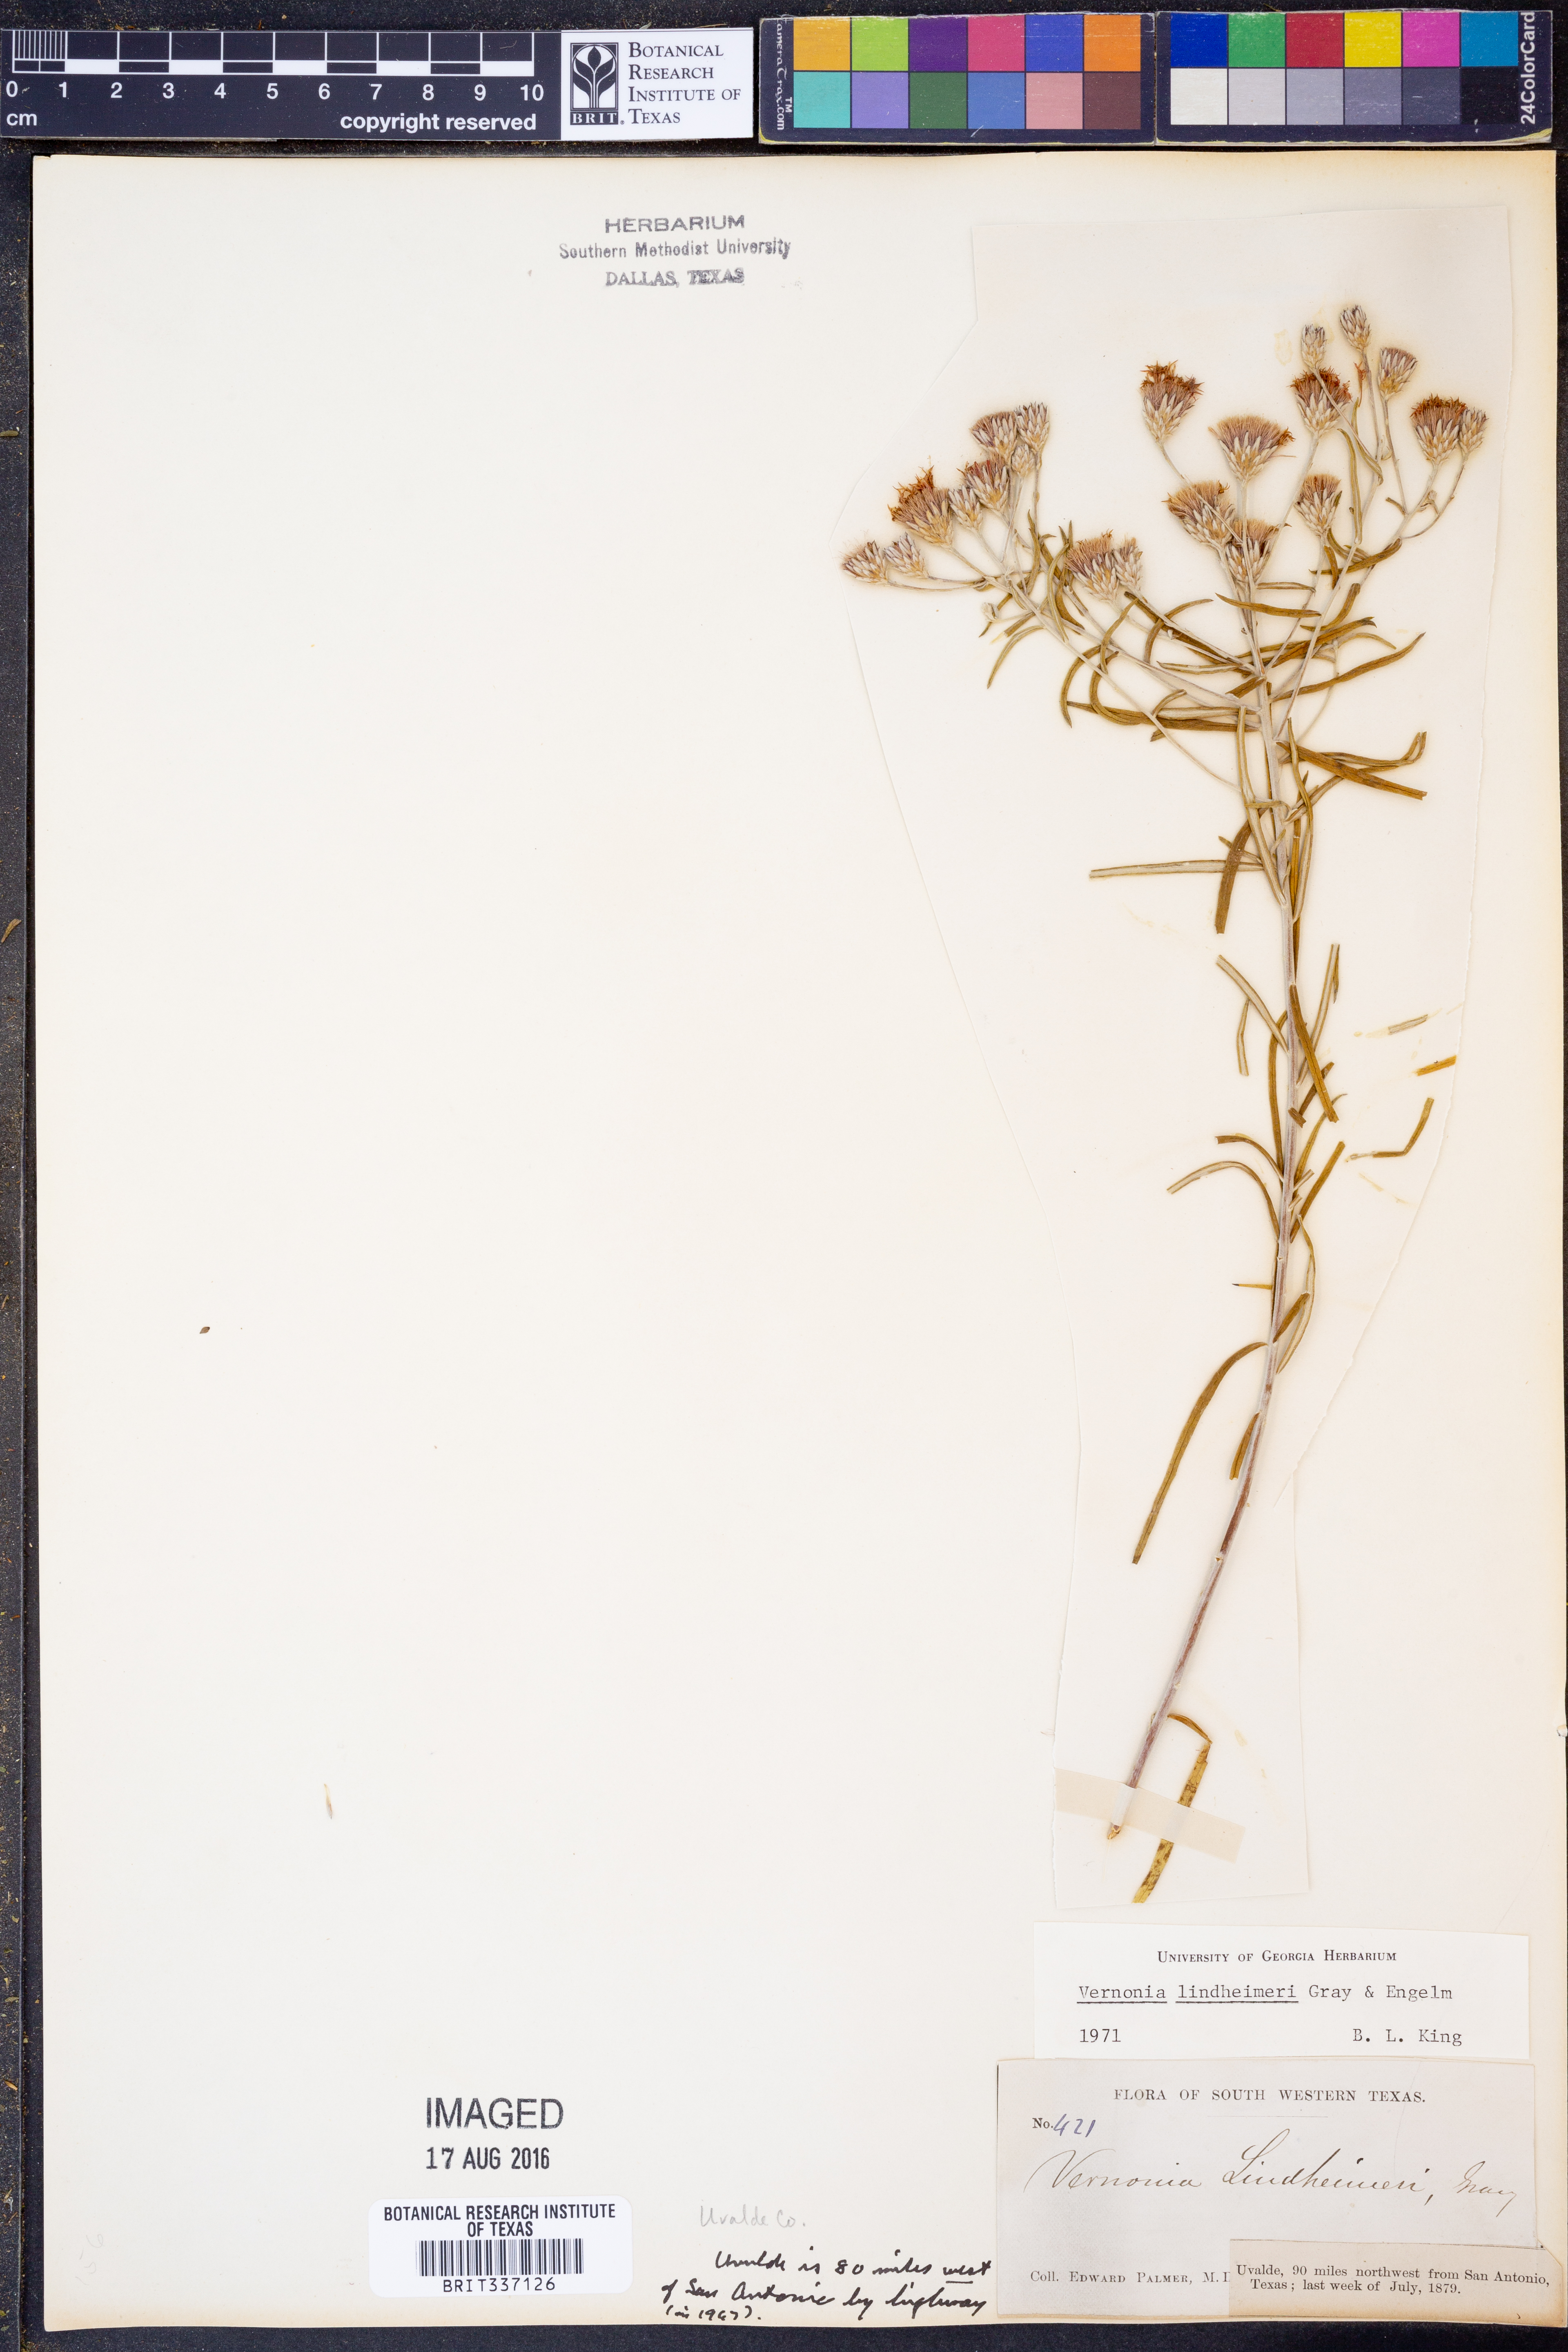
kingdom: Plantae
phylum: Tracheophyta
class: Magnoliopsida
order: Asterales
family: Asteraceae
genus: Vernonia
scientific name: Vernonia lindheimeri
